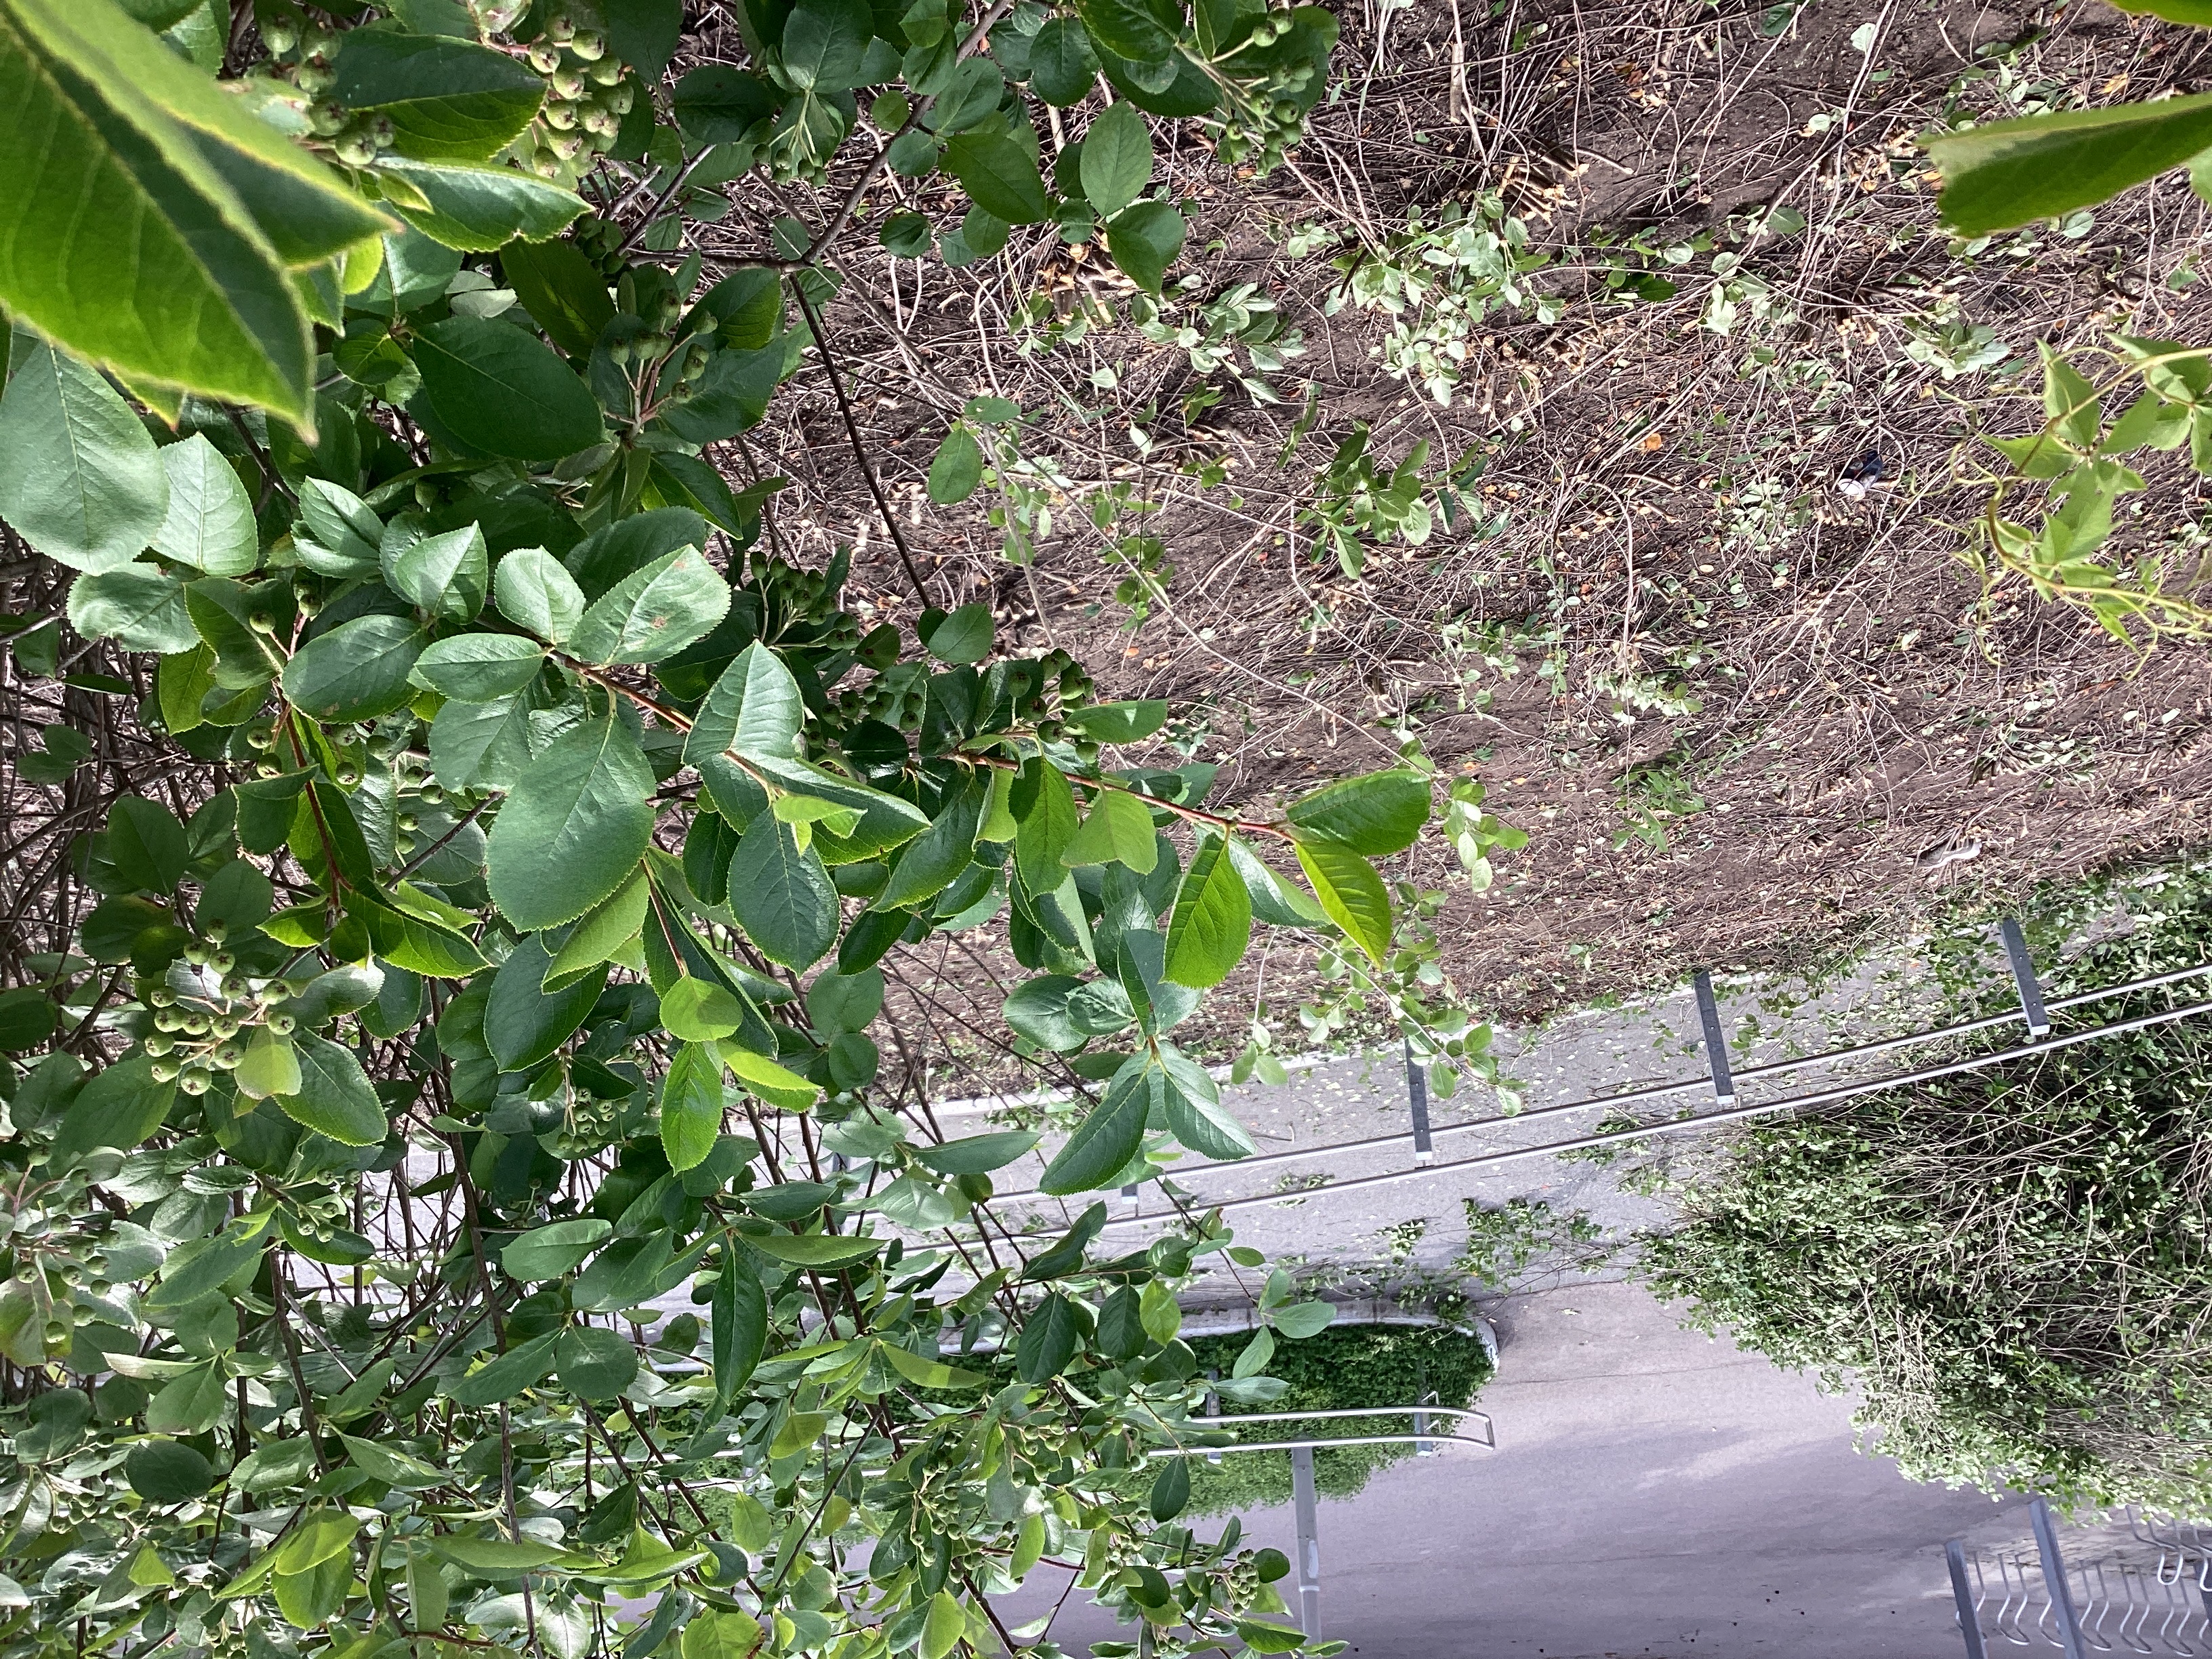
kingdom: Plantae
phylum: Tracheophyta
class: Magnoliopsida
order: Rosales
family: Rosaceae
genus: Aronia
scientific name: Aronia melanocarpa
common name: svartsurbær
